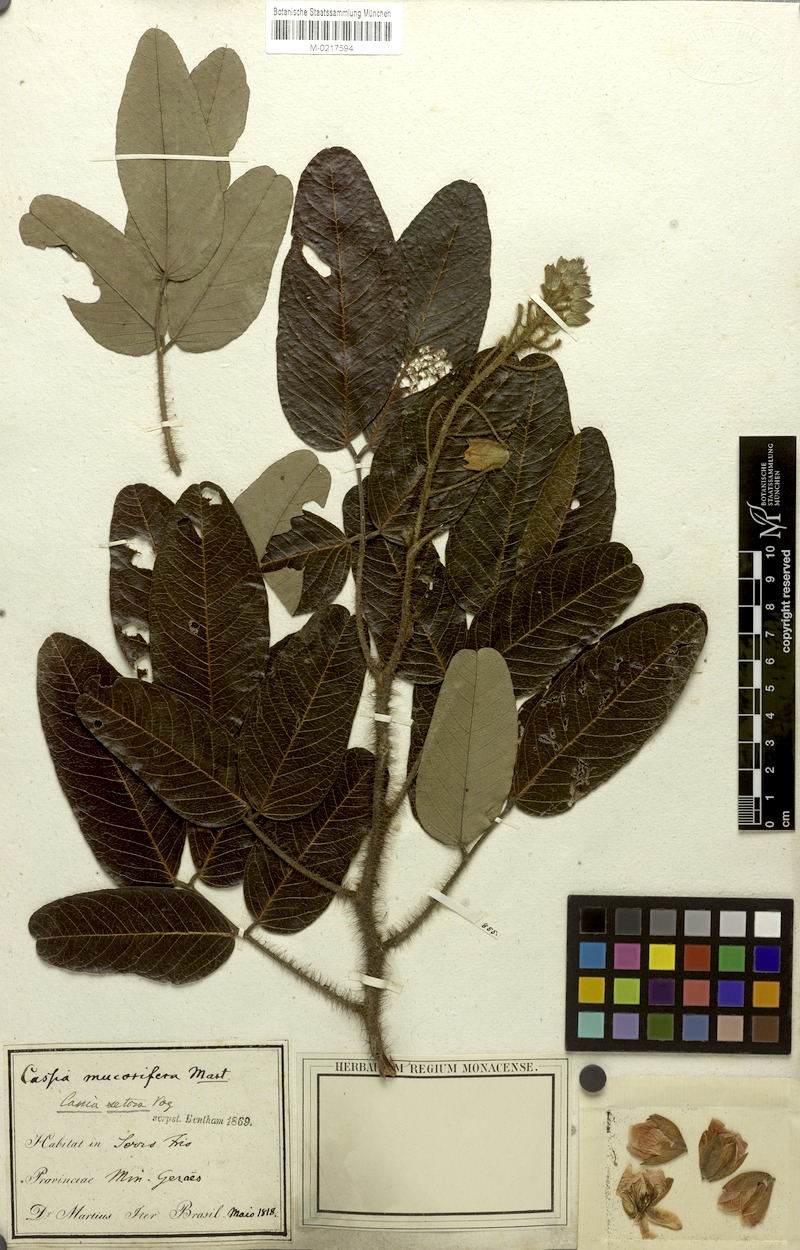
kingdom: Plantae
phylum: Tracheophyta
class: Magnoliopsida
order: Fabales
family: Fabaceae
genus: Chamaecrista
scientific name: Chamaecrista setosa
